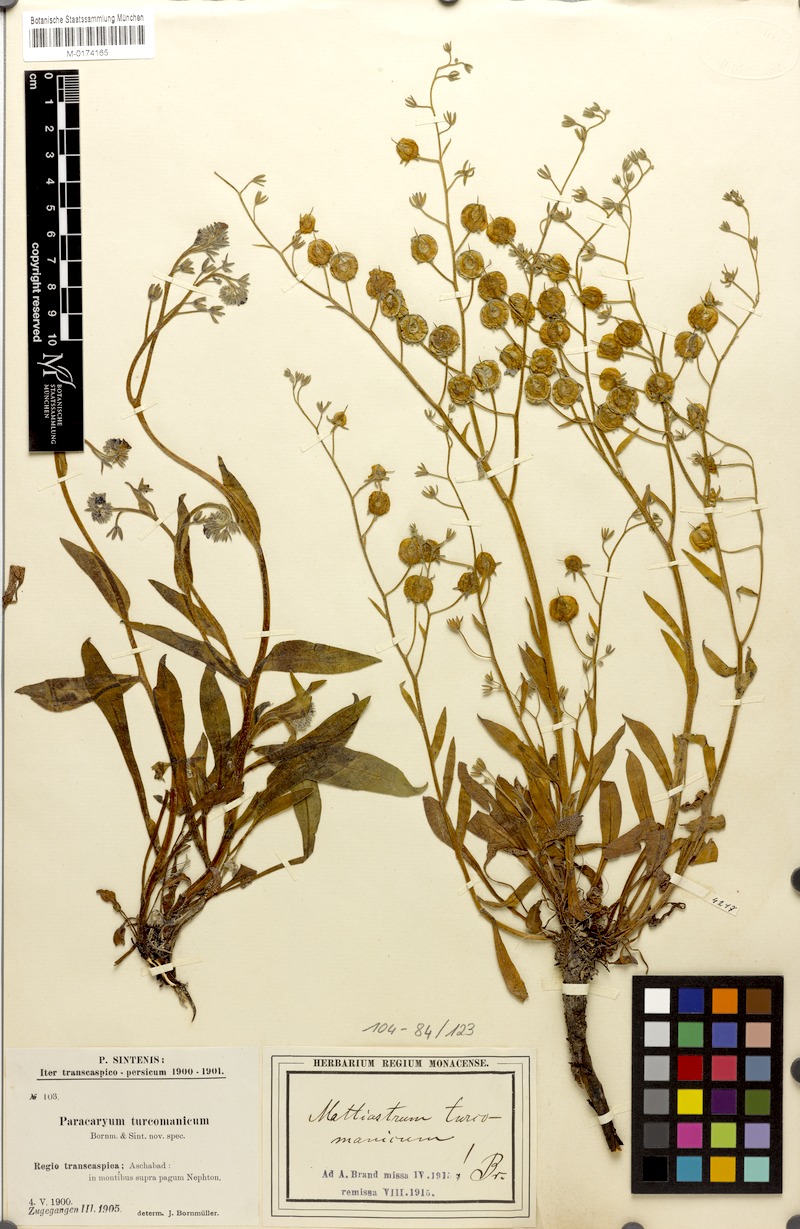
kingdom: Plantae
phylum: Tracheophyta
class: Magnoliopsida
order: Boraginales
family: Boraginaceae
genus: Paracaryum
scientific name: Paracaryum turcomanicum
